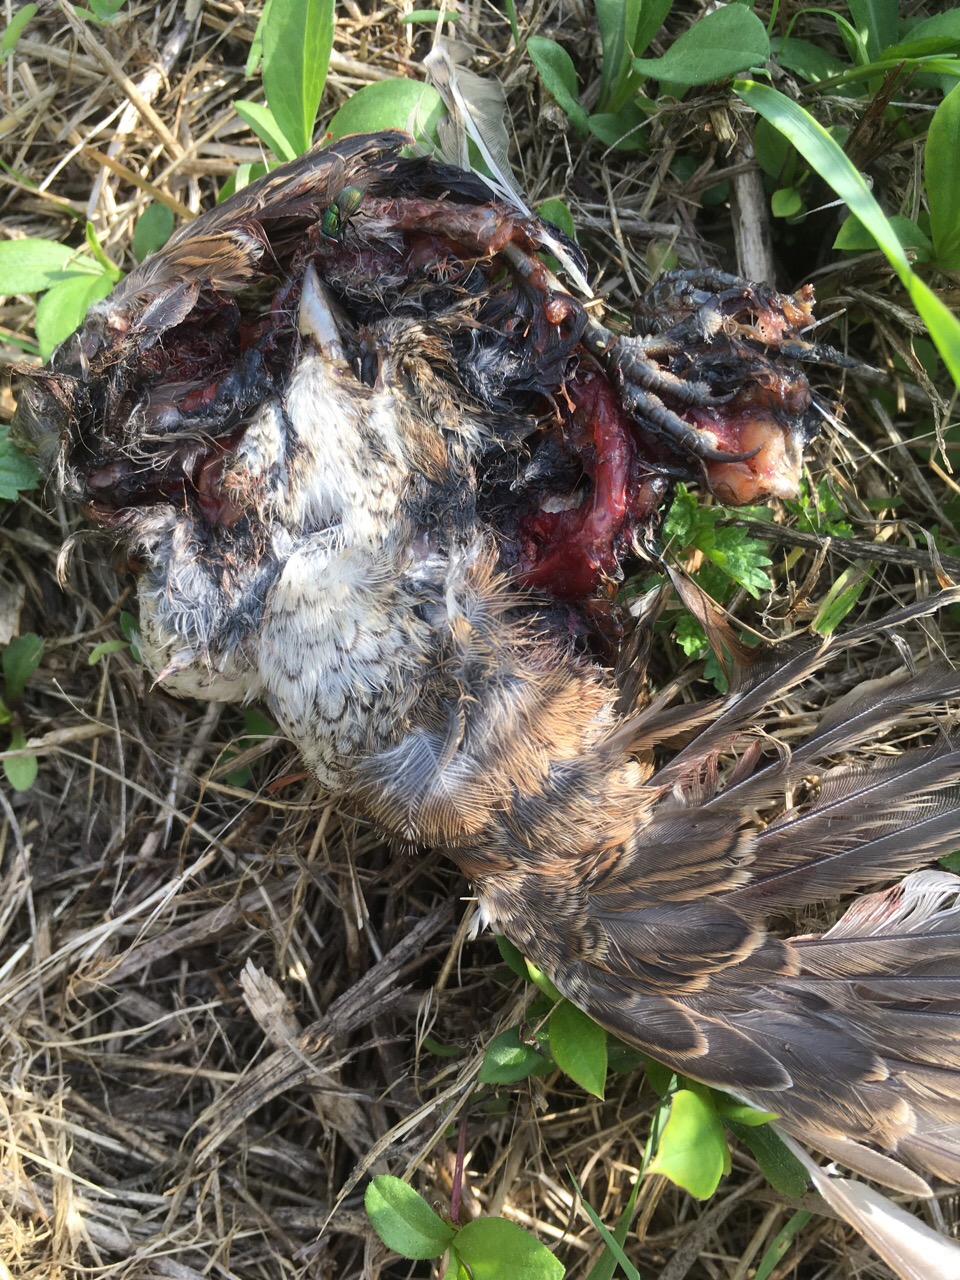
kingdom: Animalia
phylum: Chordata
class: Aves
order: Passeriformes
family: Laniidae
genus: Lanius
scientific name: Lanius collurio
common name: Red-backed shrike
